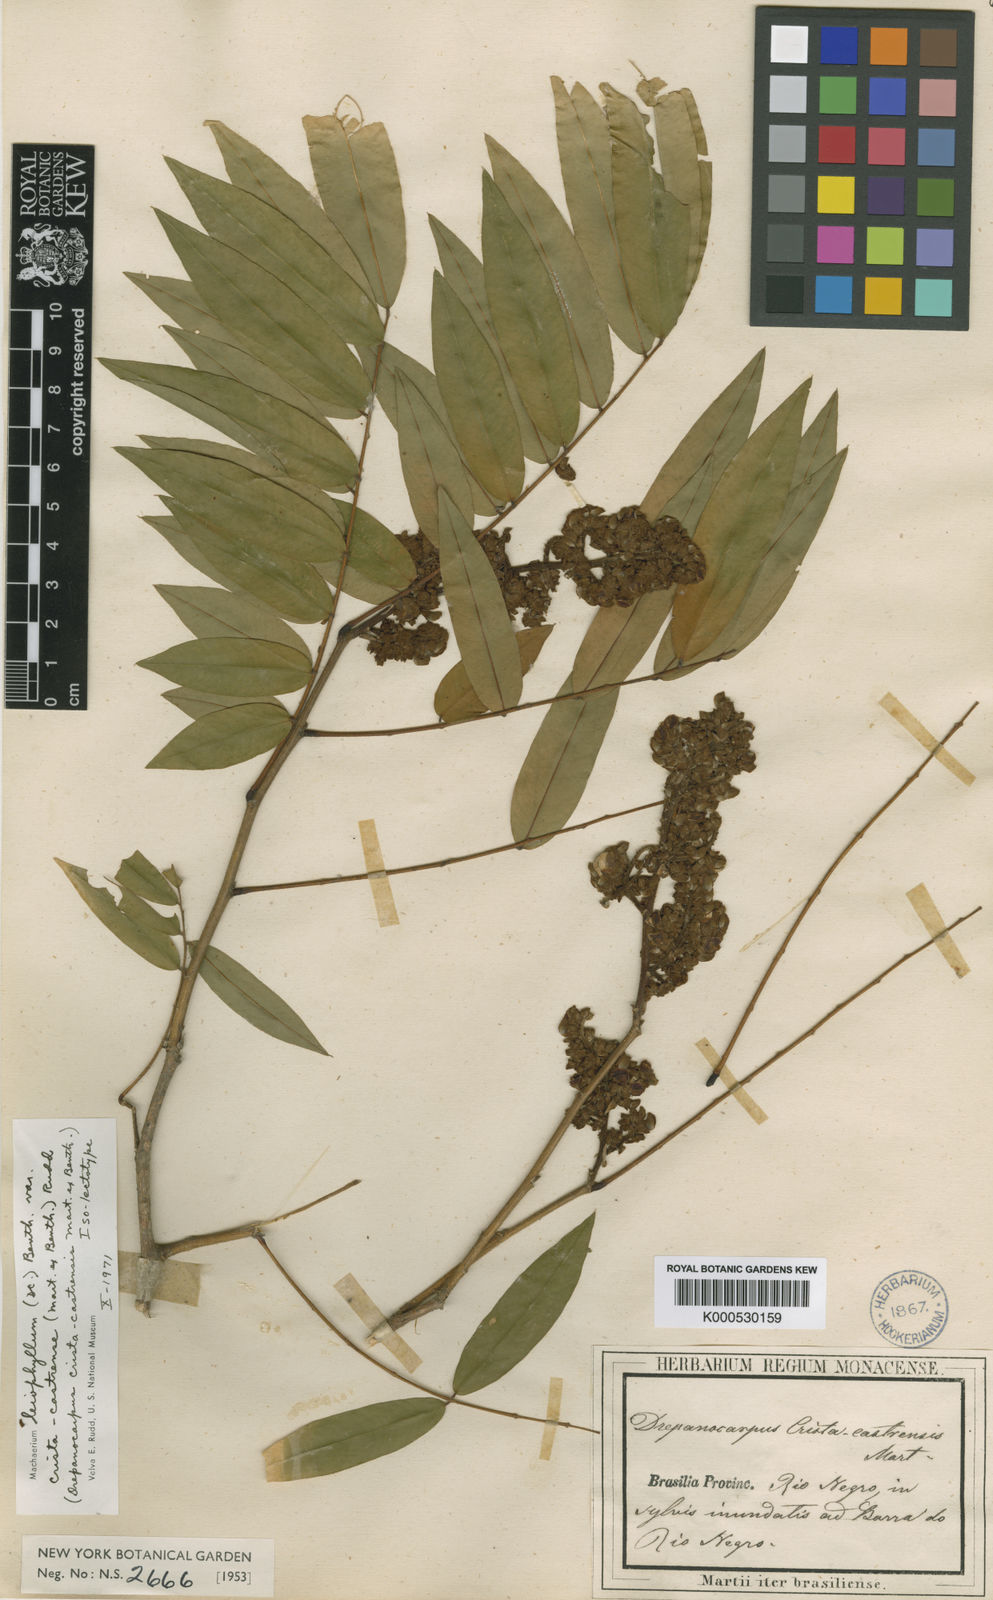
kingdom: Plantae
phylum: Tracheophyta
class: Magnoliopsida
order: Fabales
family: Fabaceae
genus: Machaerium
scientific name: Machaerium leiophyllum
